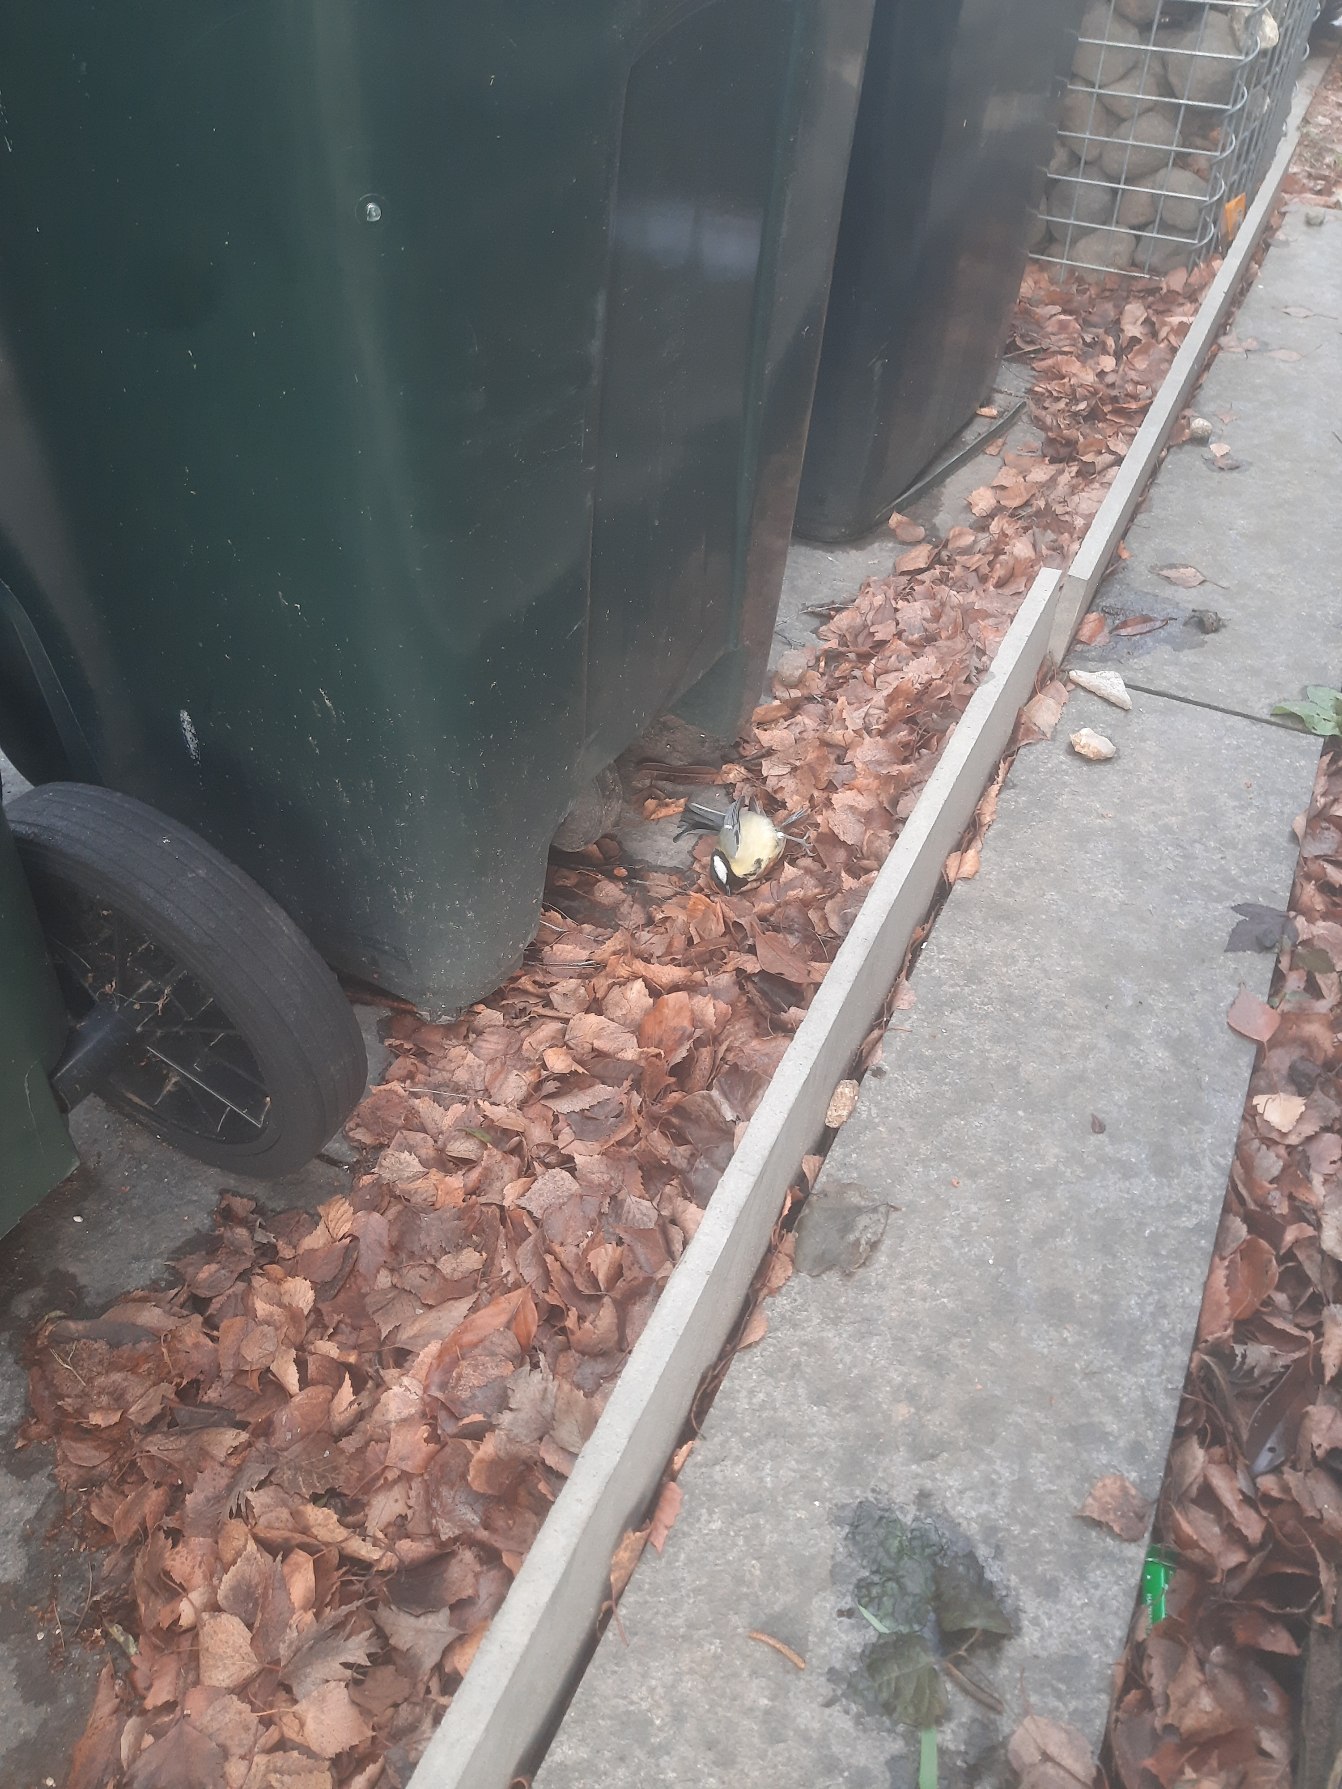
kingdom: Animalia
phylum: Chordata
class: Aves
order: Passeriformes
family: Paridae
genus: Parus
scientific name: Parus major
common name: Musvit
